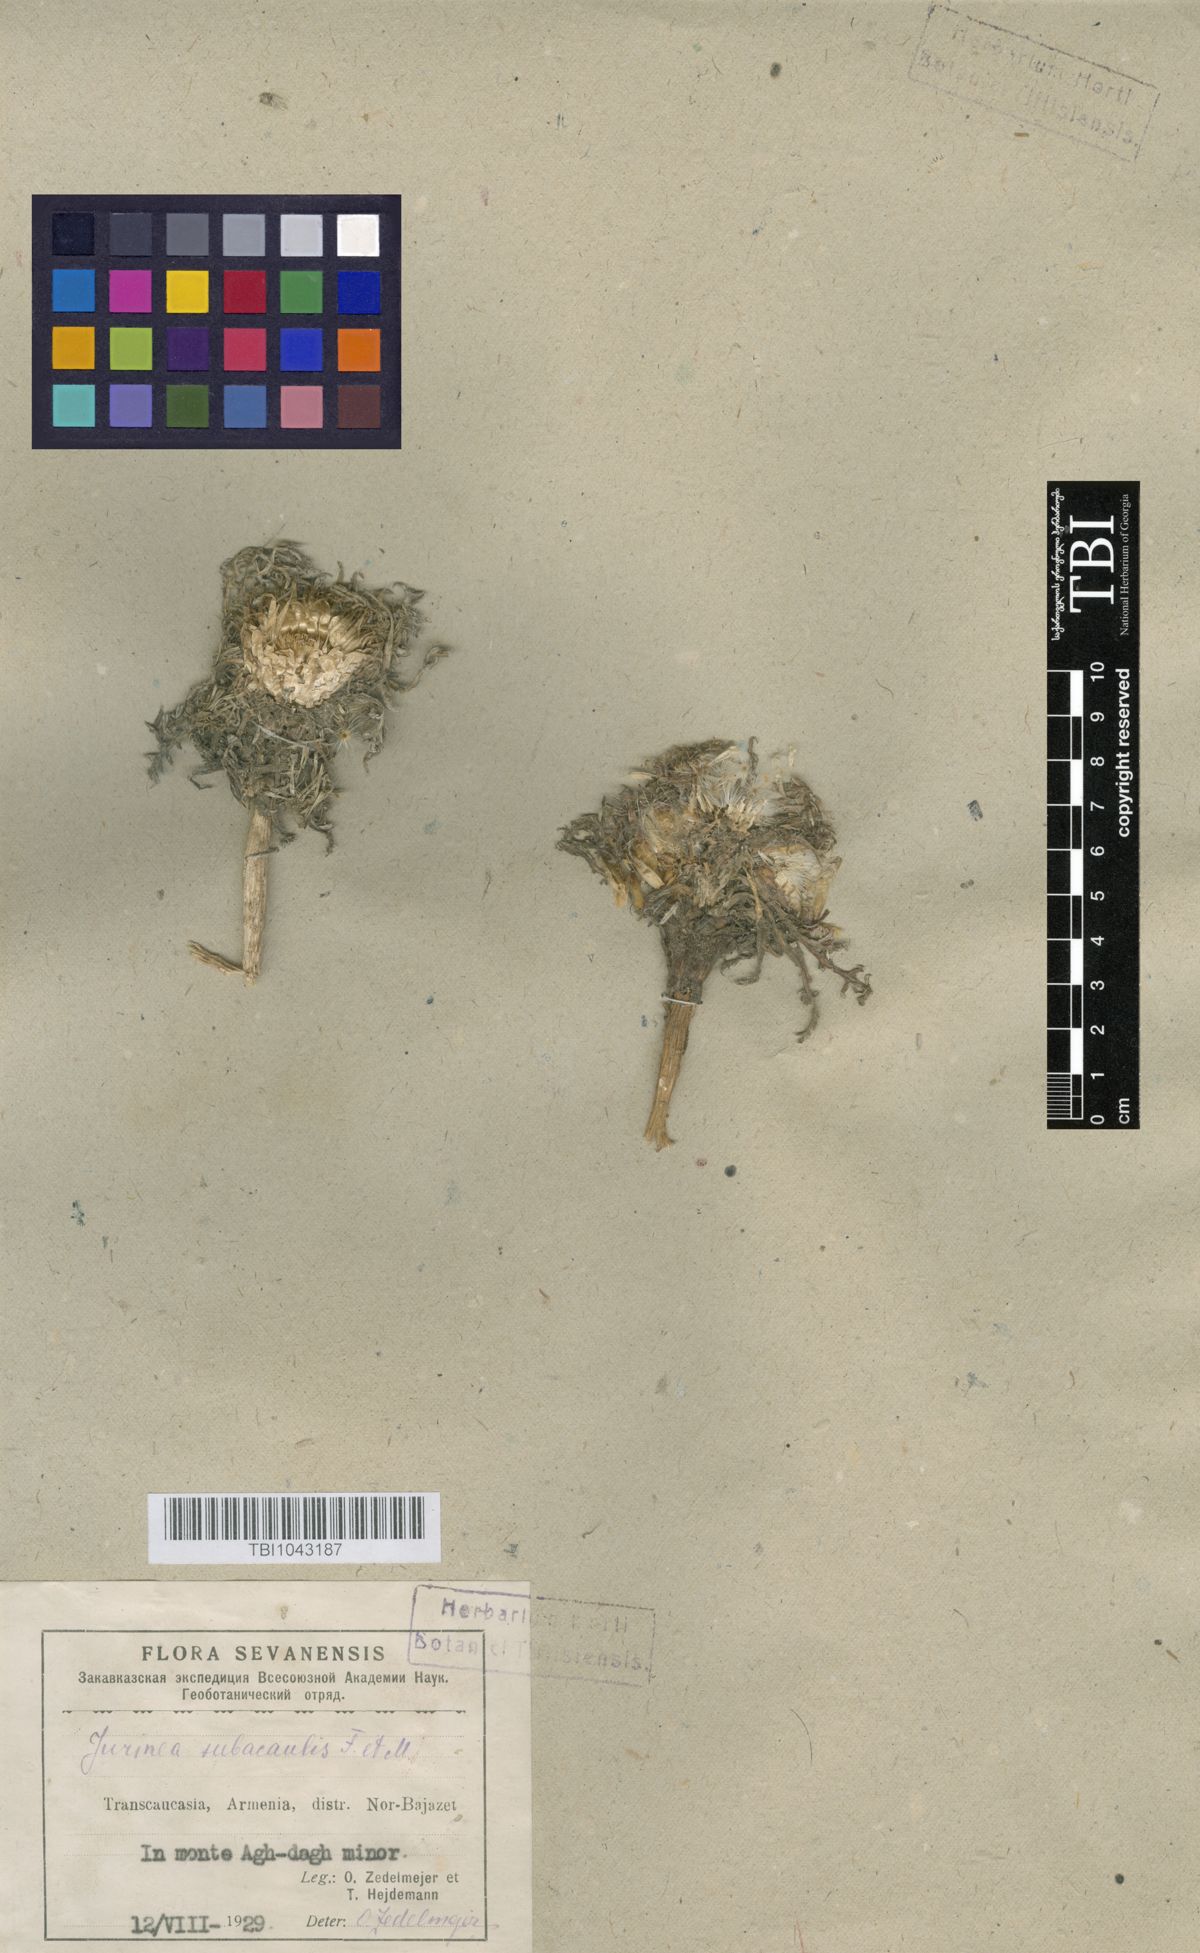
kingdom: Plantae
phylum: Tracheophyta
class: Magnoliopsida
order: Asterales
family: Asteraceae
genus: Jurinea
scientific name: Jurinea moschus
